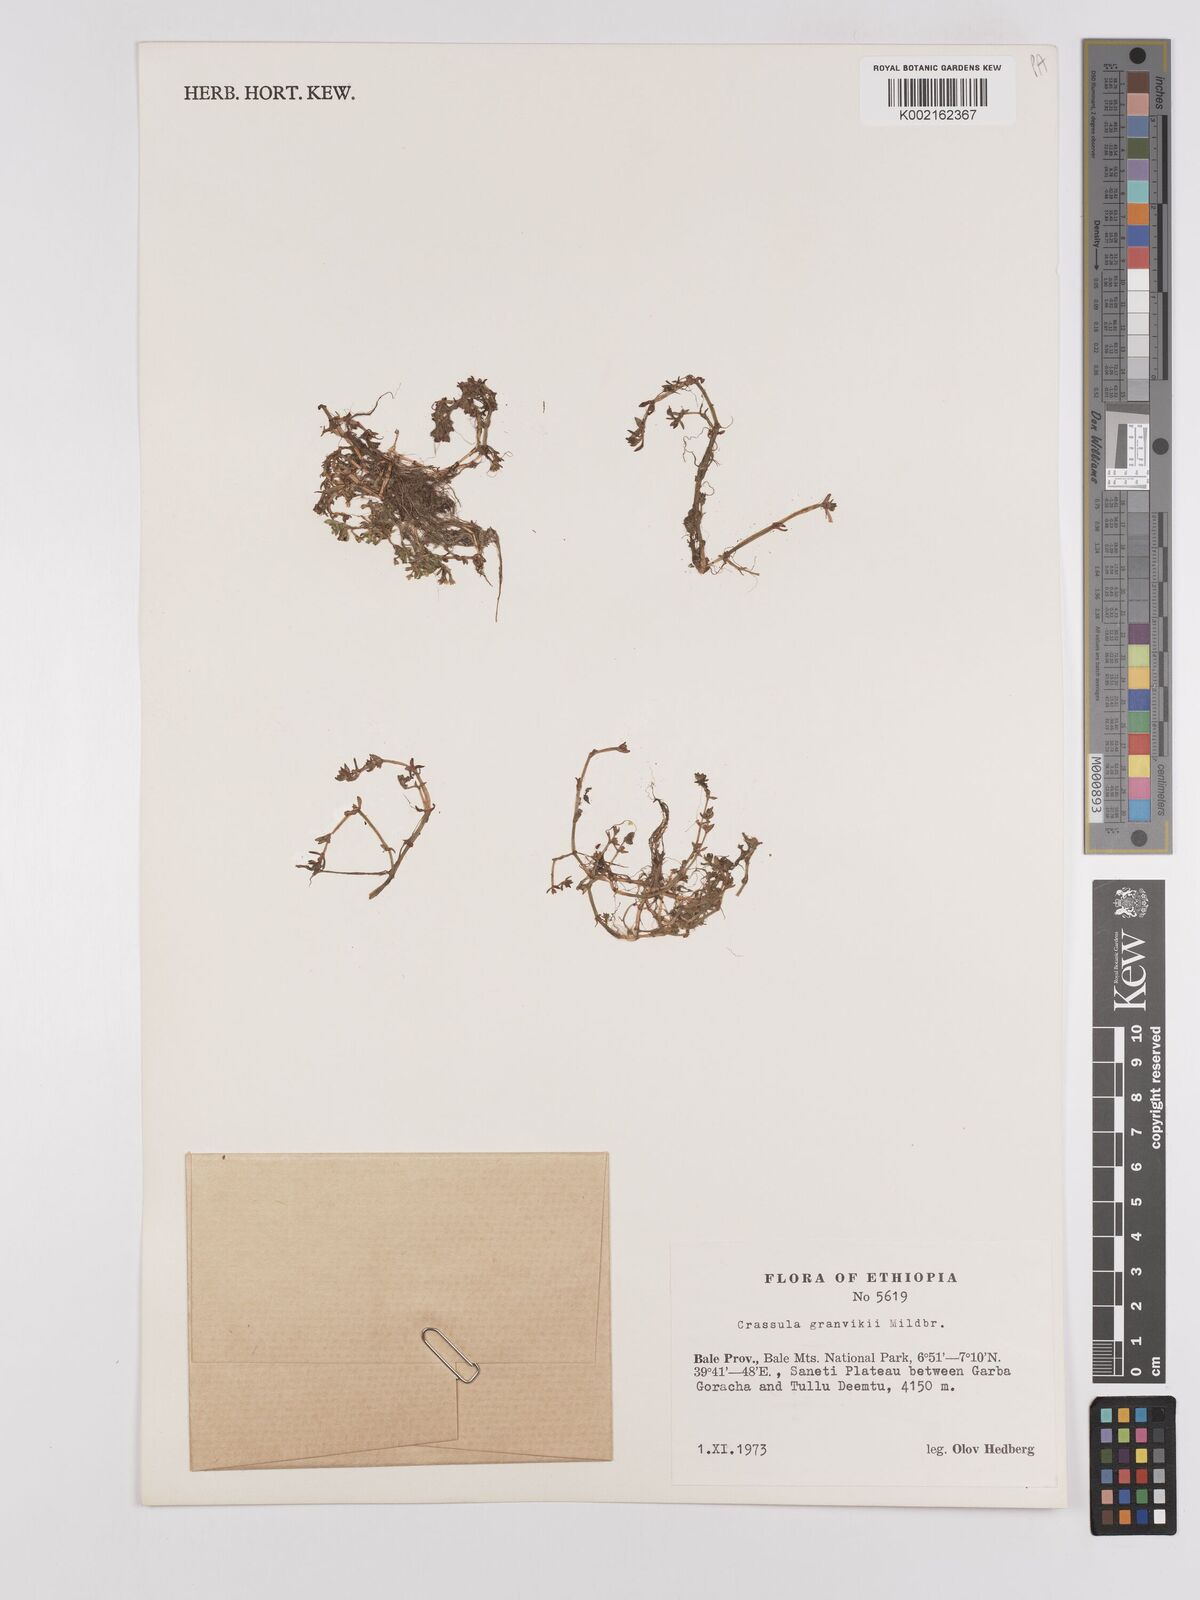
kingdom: Plantae
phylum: Tracheophyta
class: Magnoliopsida
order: Saxifragales
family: Crassulaceae
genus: Crassula
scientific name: Crassula granvikii
